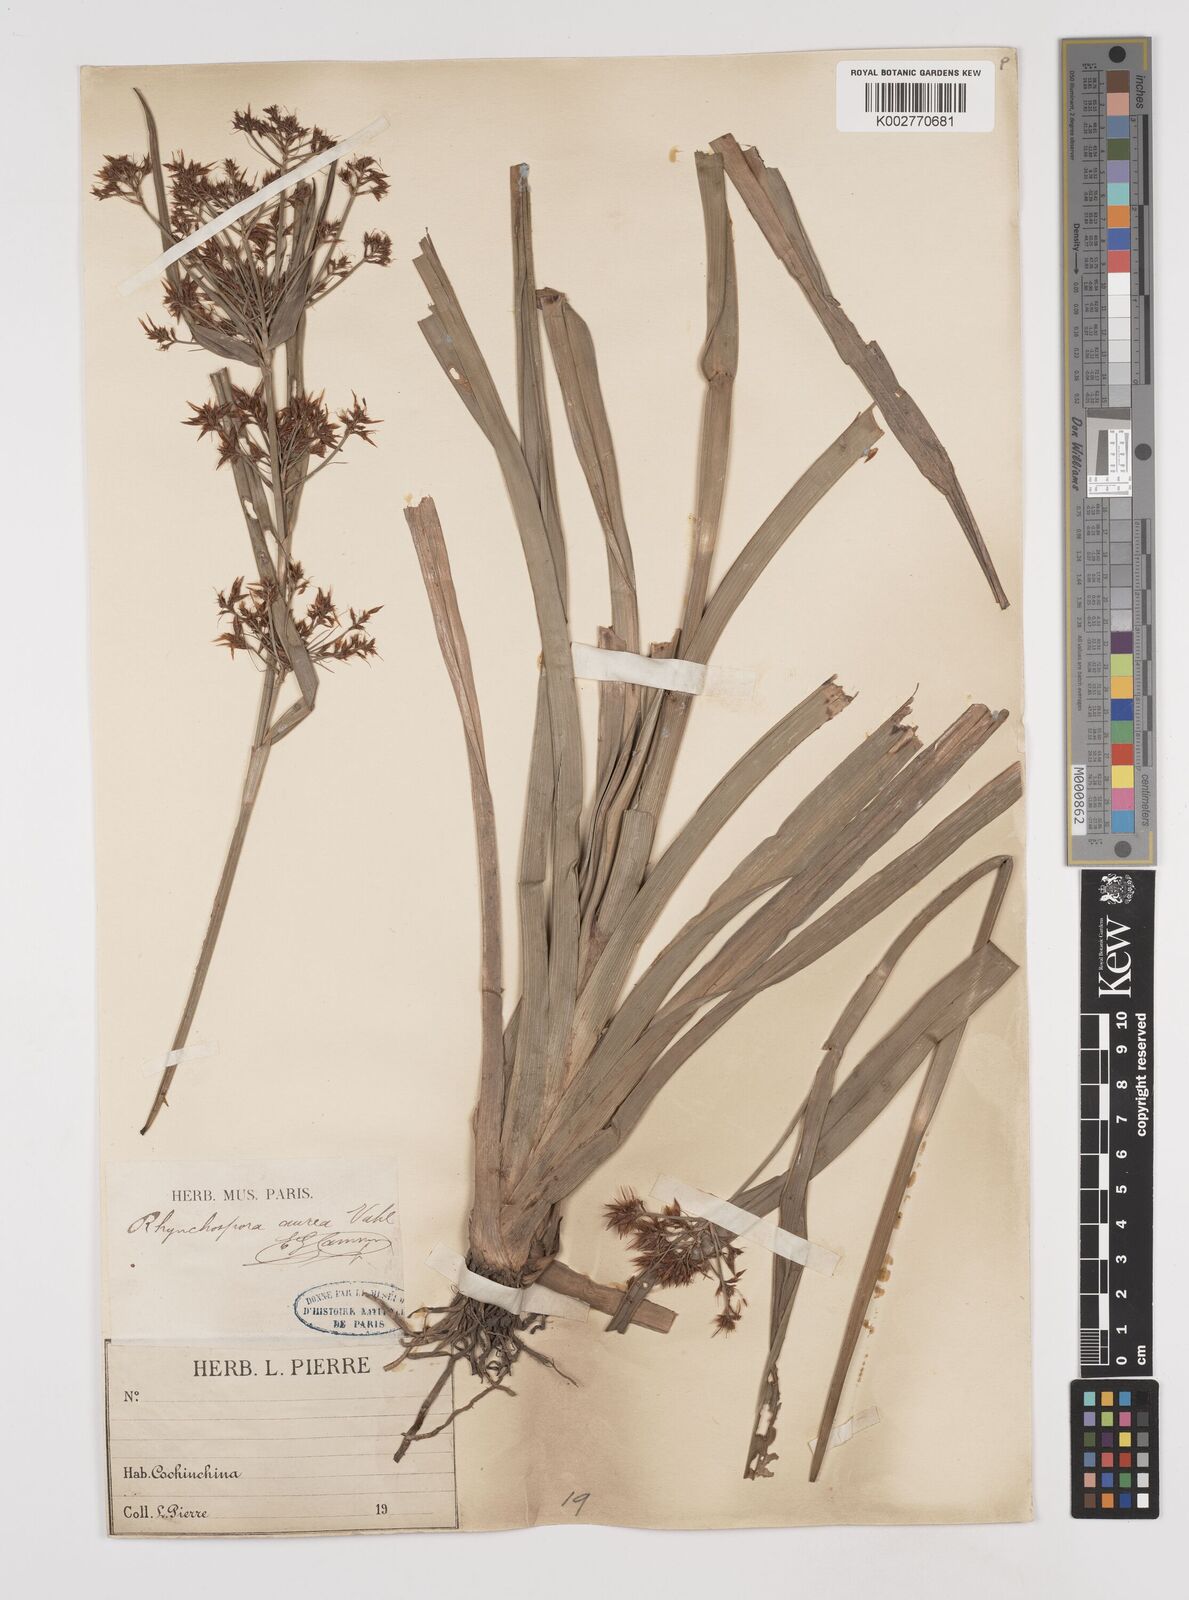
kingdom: Plantae
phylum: Tracheophyta
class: Liliopsida
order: Poales
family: Cyperaceae
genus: Rhynchospora
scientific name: Rhynchospora corymbosa
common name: Golden beak sedge
